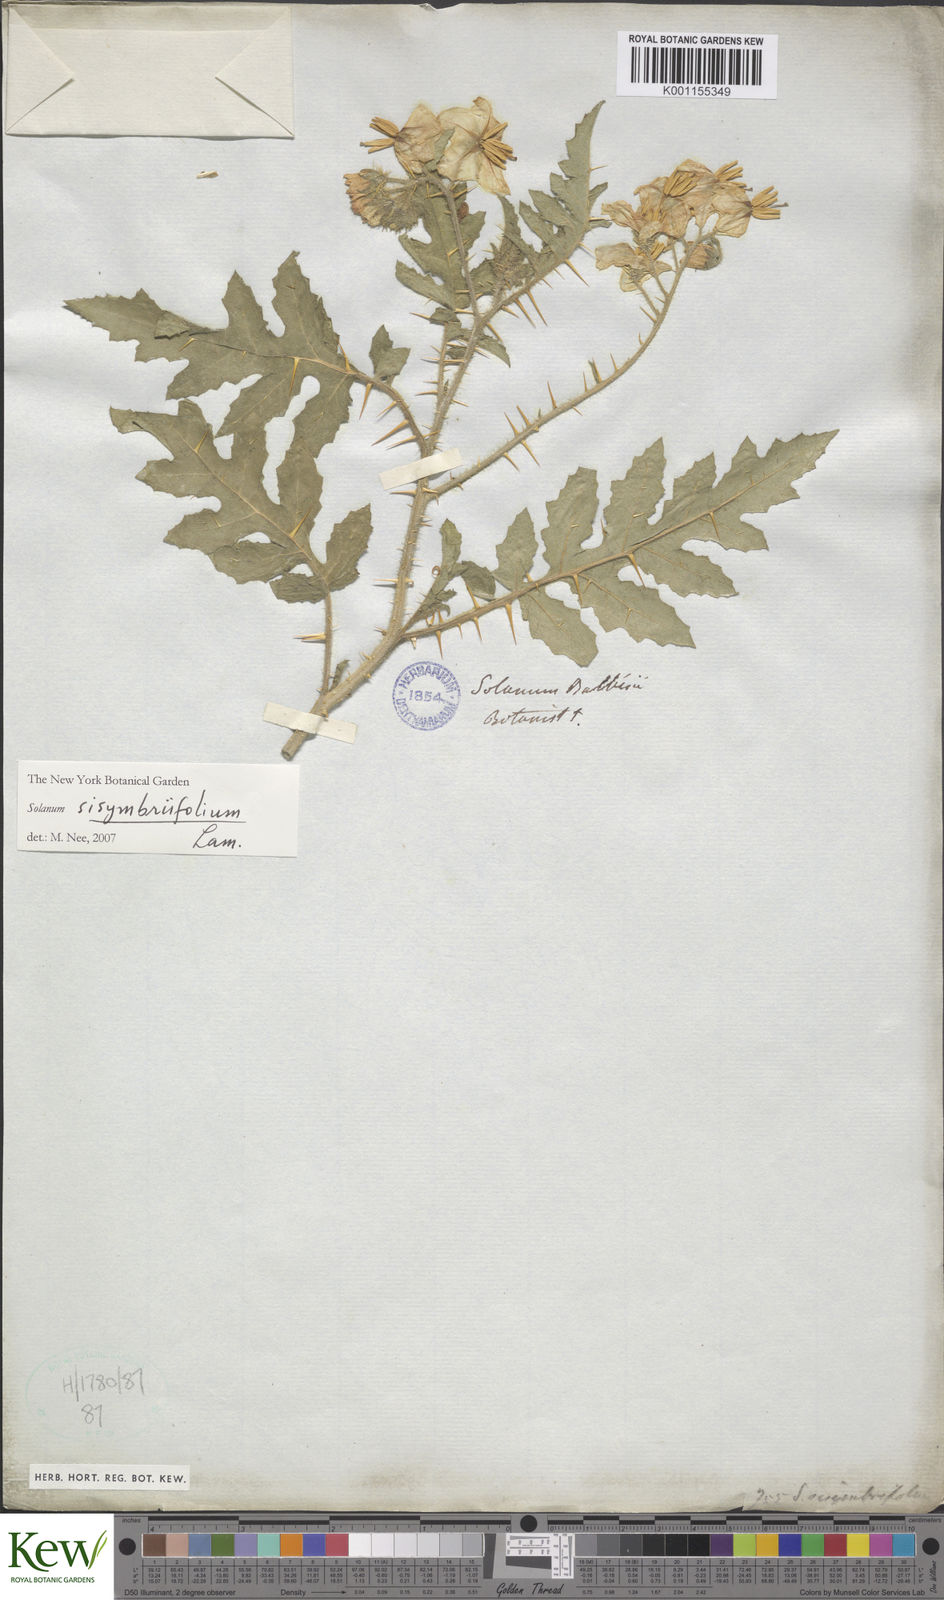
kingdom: Plantae
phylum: Tracheophyta
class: Magnoliopsida
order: Solanales
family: Solanaceae
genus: Solanum
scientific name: Solanum sisymbriifolium
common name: Red buffalo-bur
